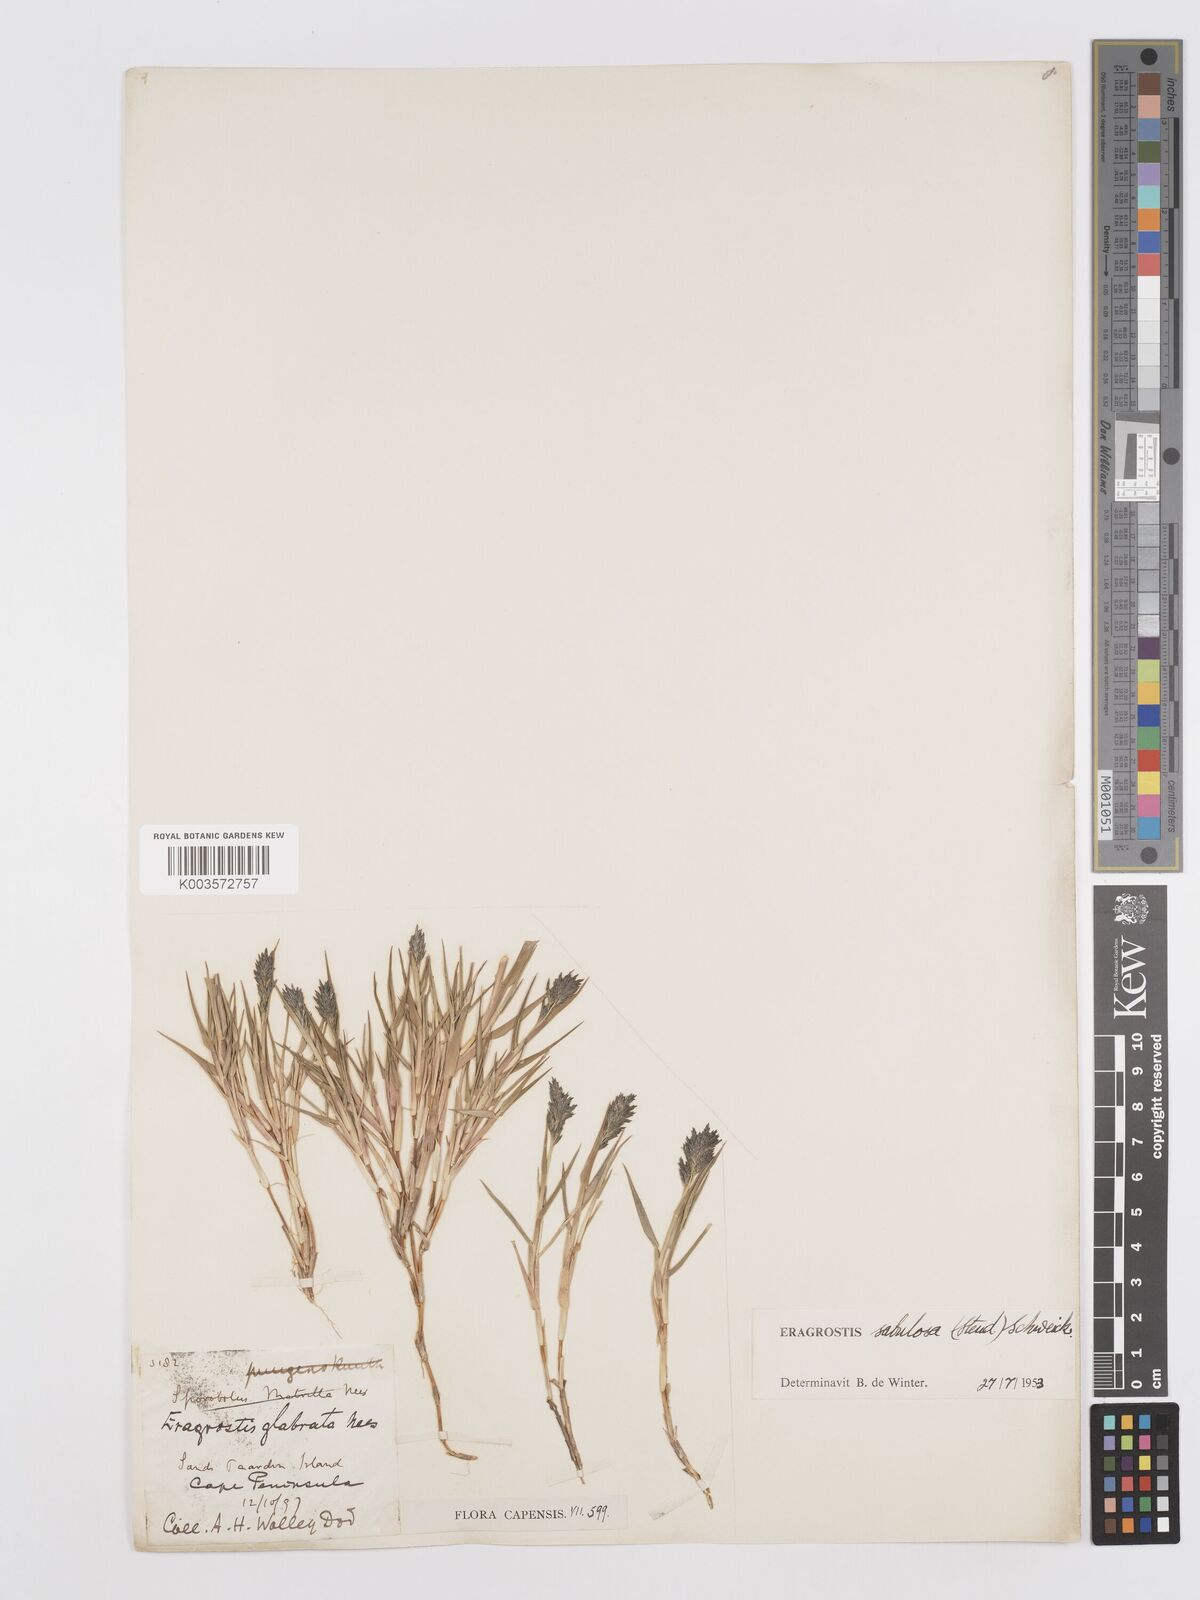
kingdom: Plantae
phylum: Tracheophyta
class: Liliopsida
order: Poales
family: Poaceae
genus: Eragrostis
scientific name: Eragrostis sabulosa
